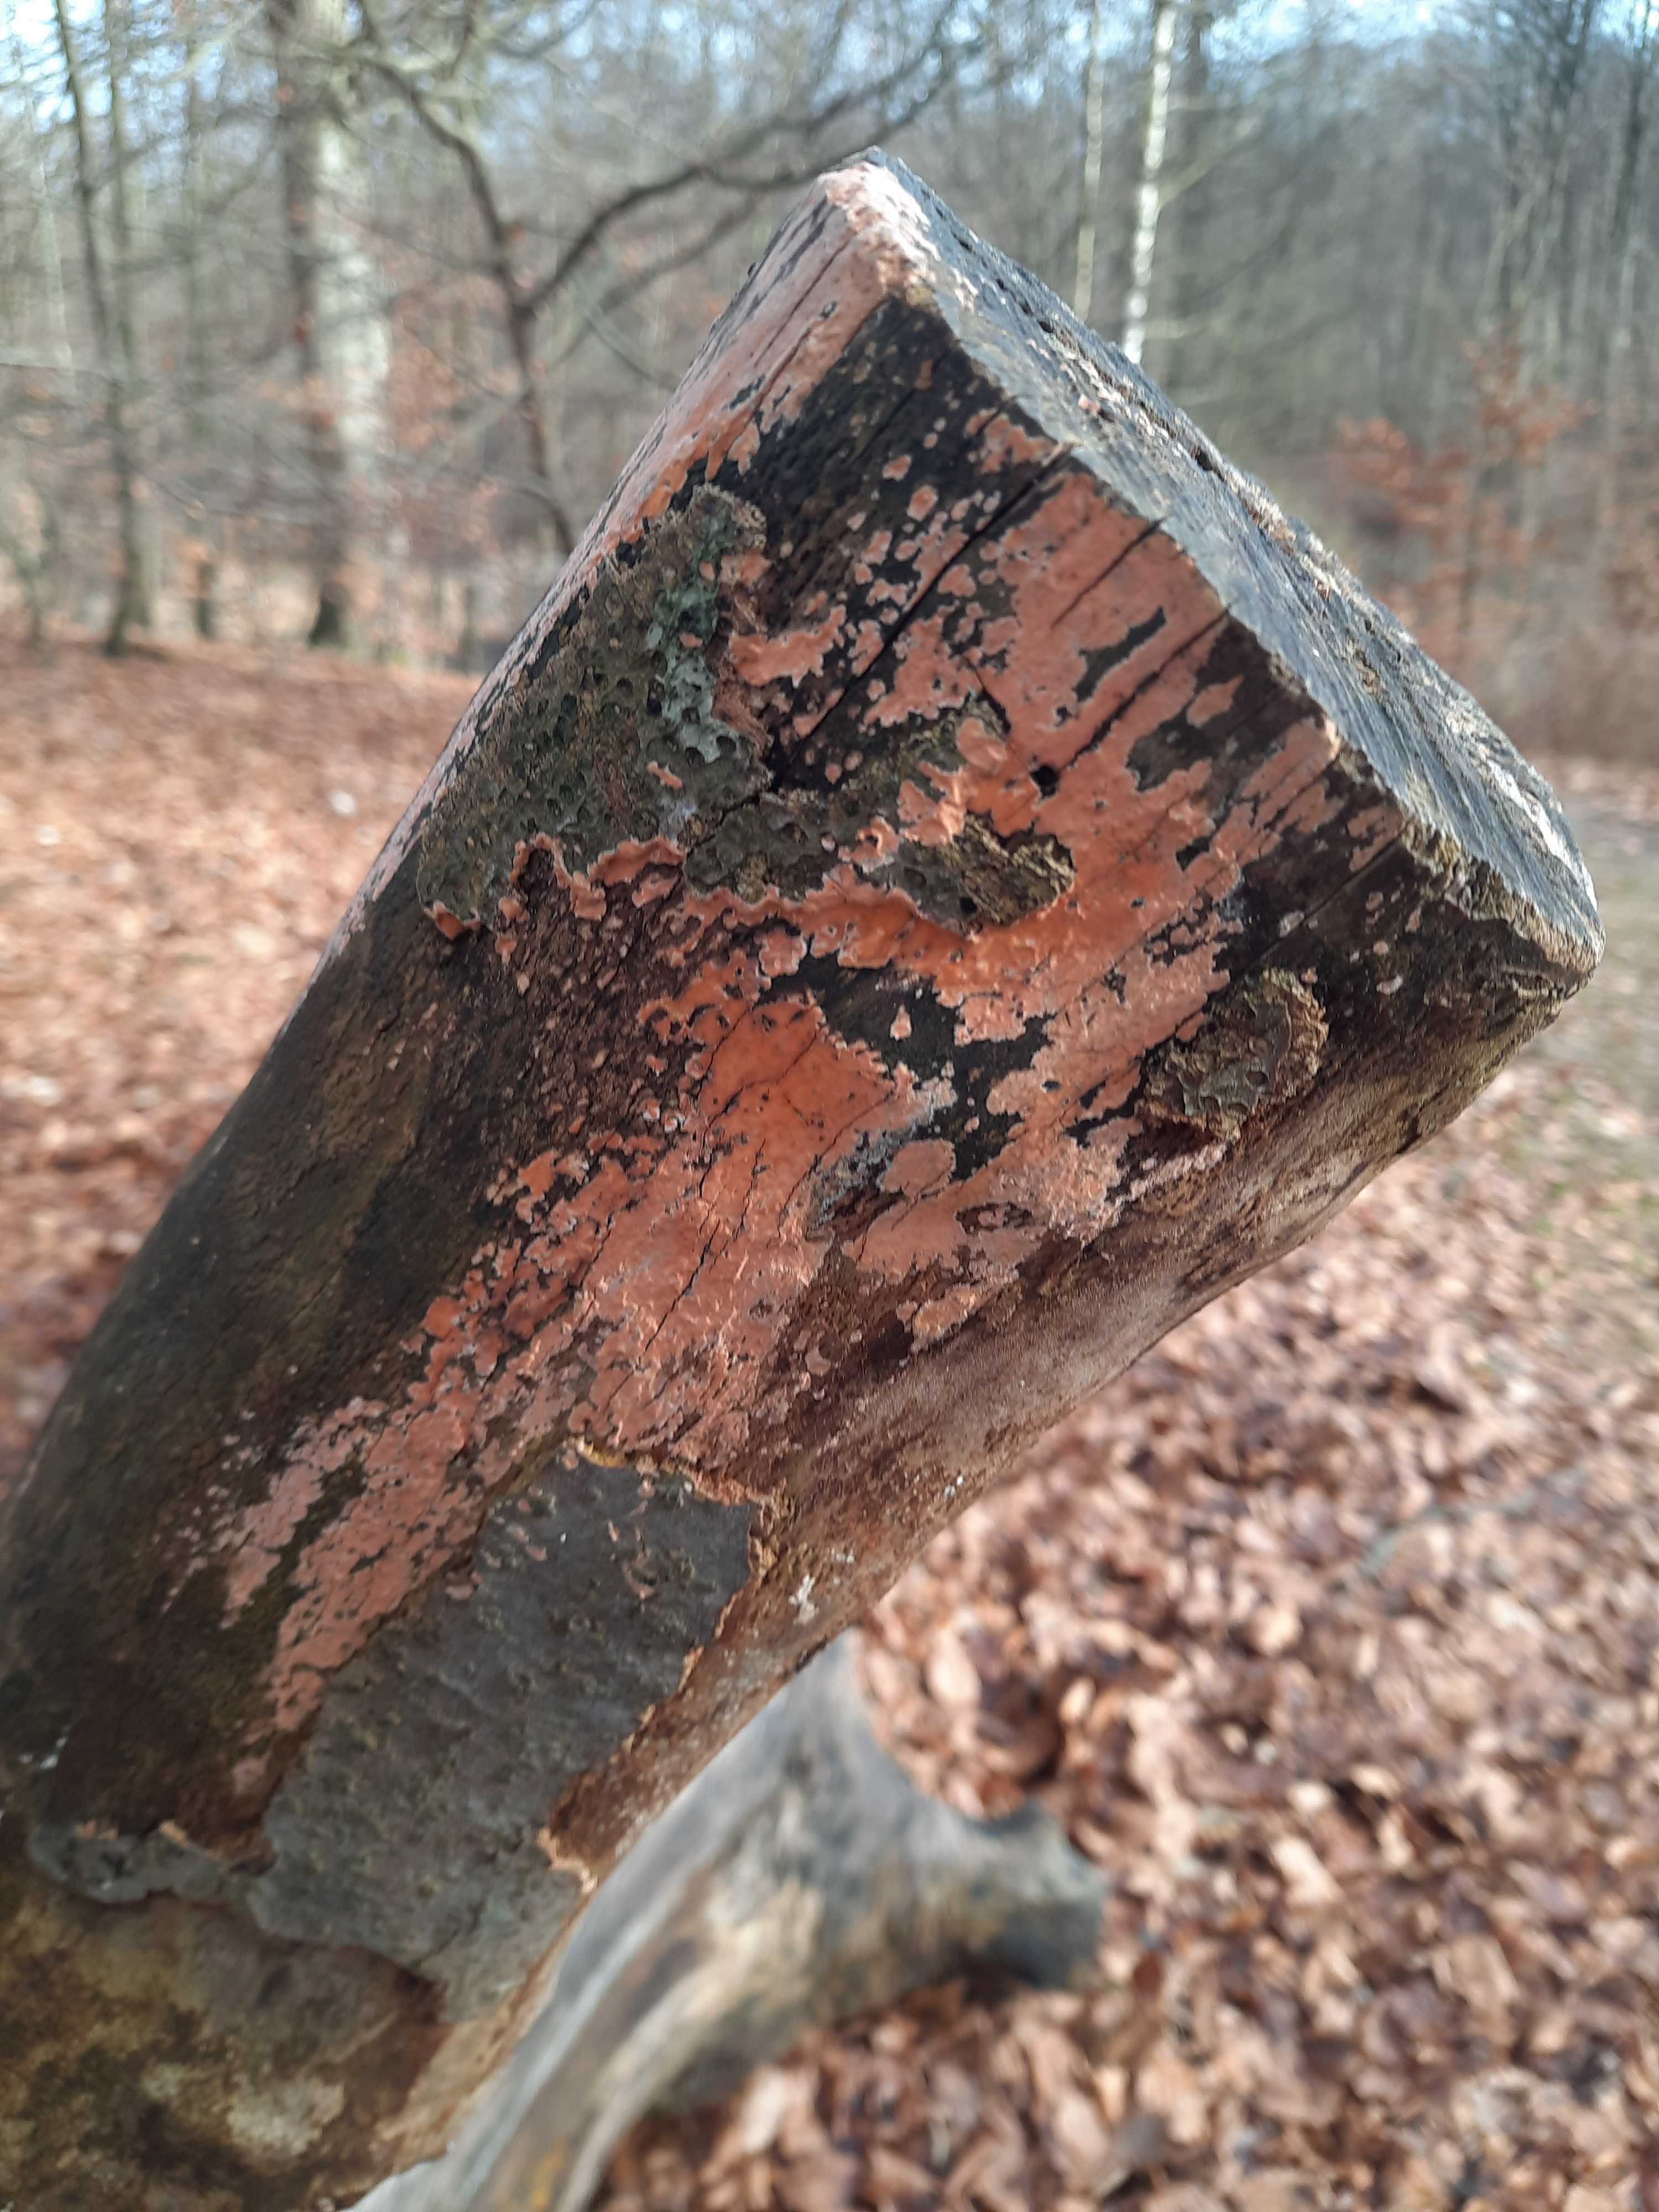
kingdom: Fungi
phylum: Basidiomycota
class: Agaricomycetes
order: Russulales
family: Peniophoraceae
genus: Peniophora
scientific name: Peniophora incarnata
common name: laksefarvet voksskind
